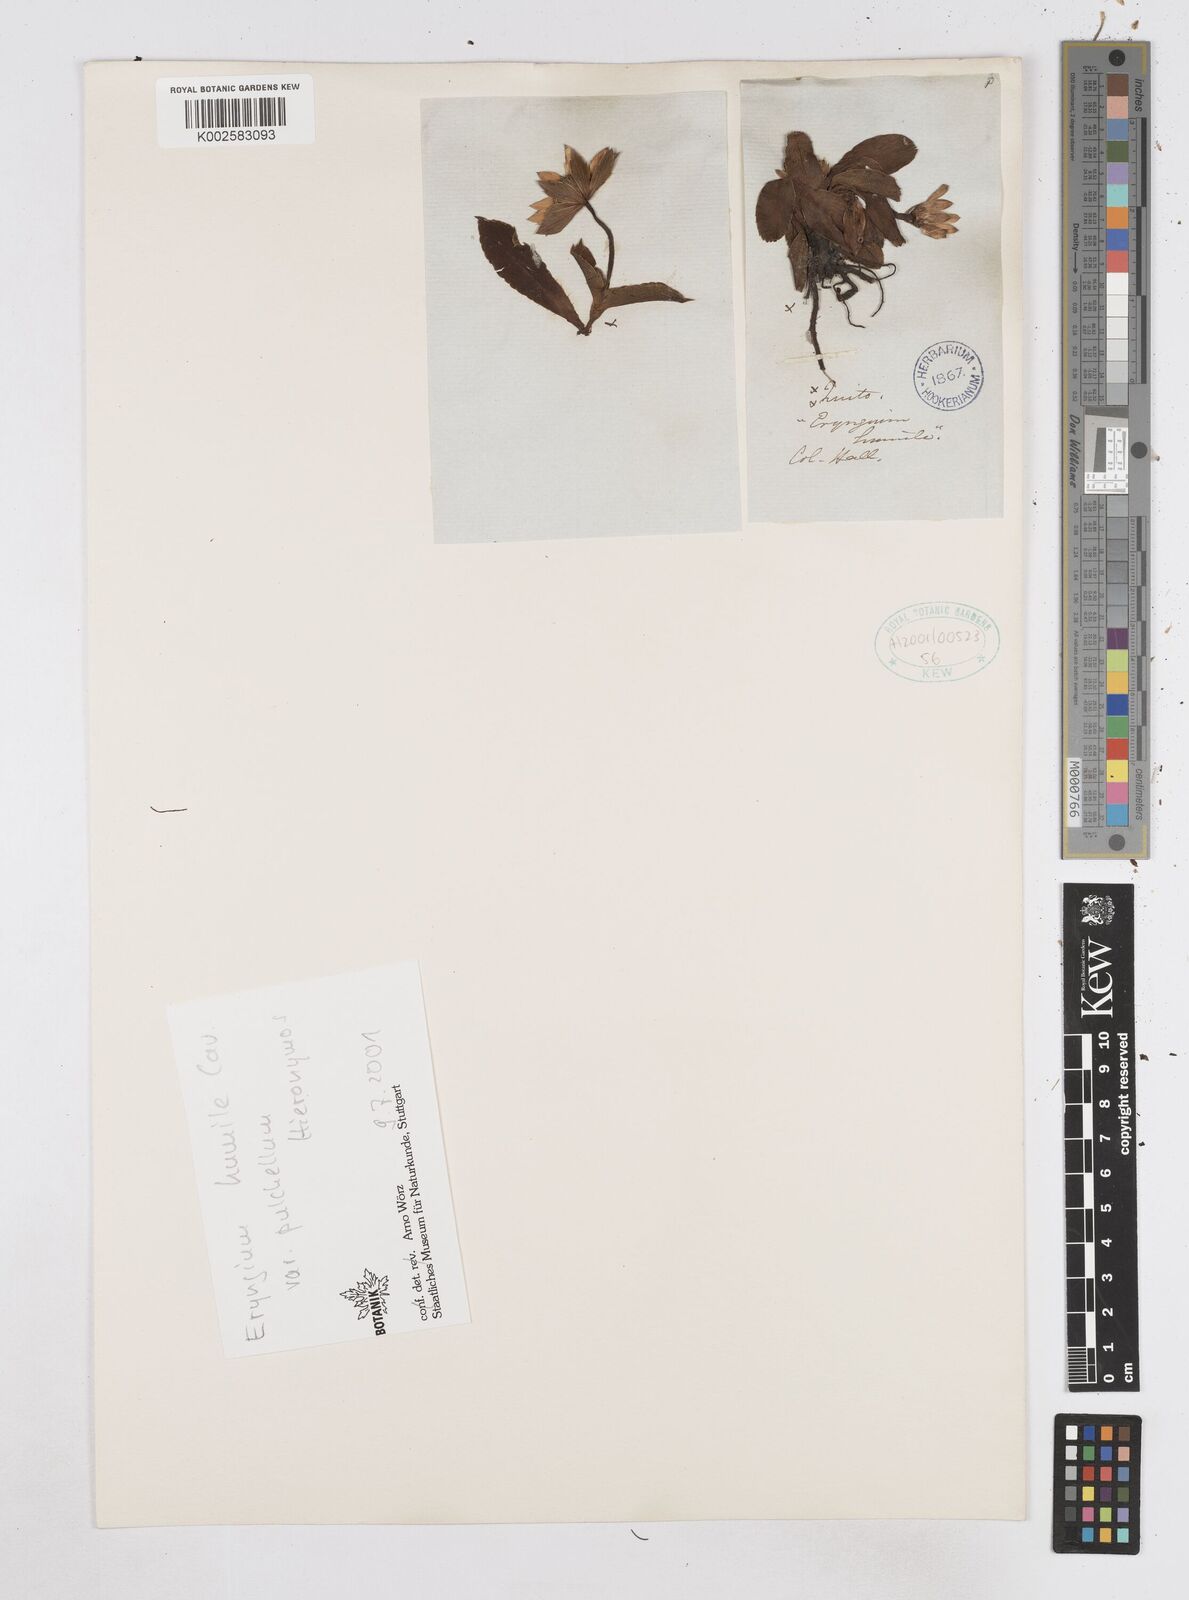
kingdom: Plantae
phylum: Tracheophyta
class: Magnoliopsida
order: Apiales
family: Apiaceae
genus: Eryngium
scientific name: Eryngium humile
